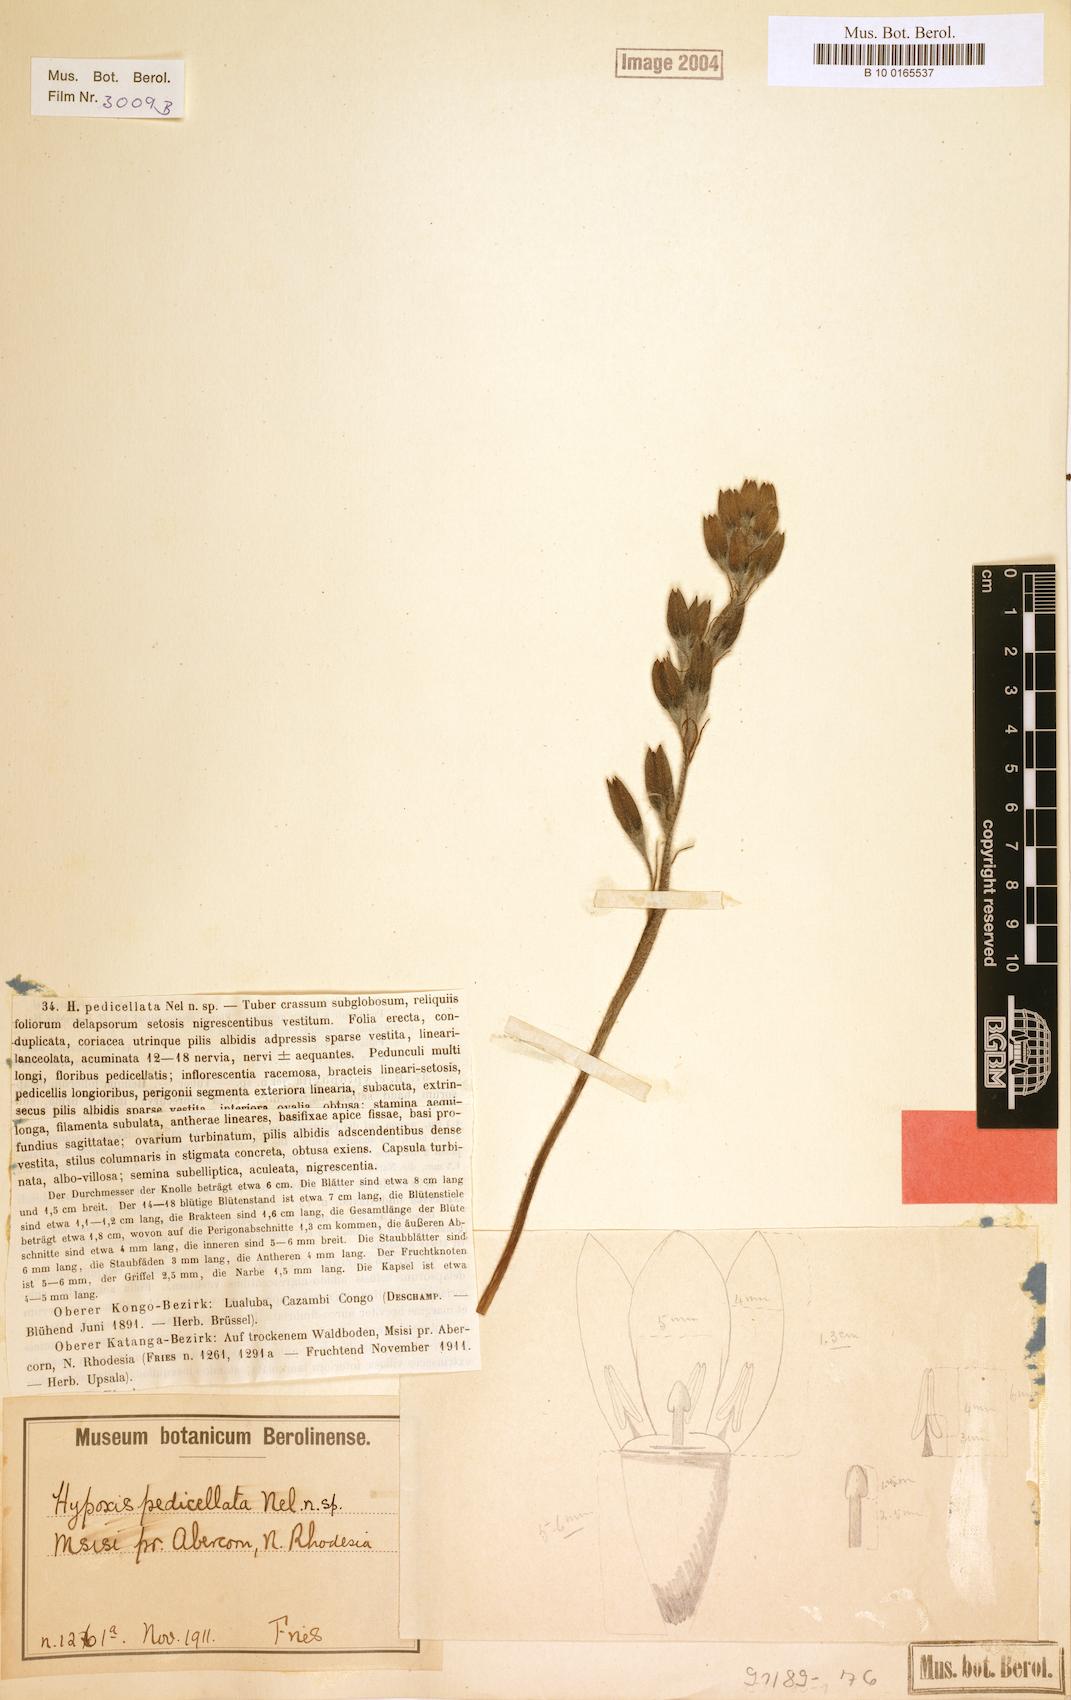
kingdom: Plantae
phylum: Tracheophyta
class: Liliopsida
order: Asparagales
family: Hypoxidaceae
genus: Hypoxis
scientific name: Hypoxis fischeri
